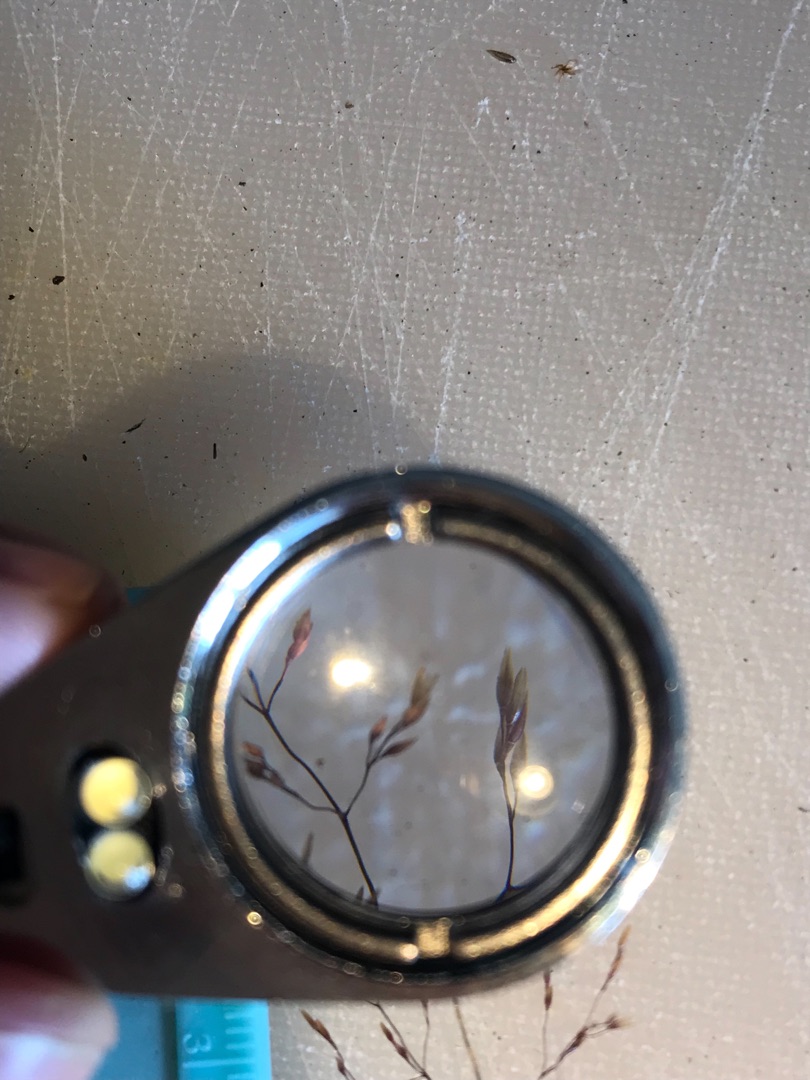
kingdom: Plantae
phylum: Tracheophyta
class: Liliopsida
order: Poales
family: Poaceae
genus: Agrostis
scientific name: Agrostis capillaris
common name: Almindelig hvene
